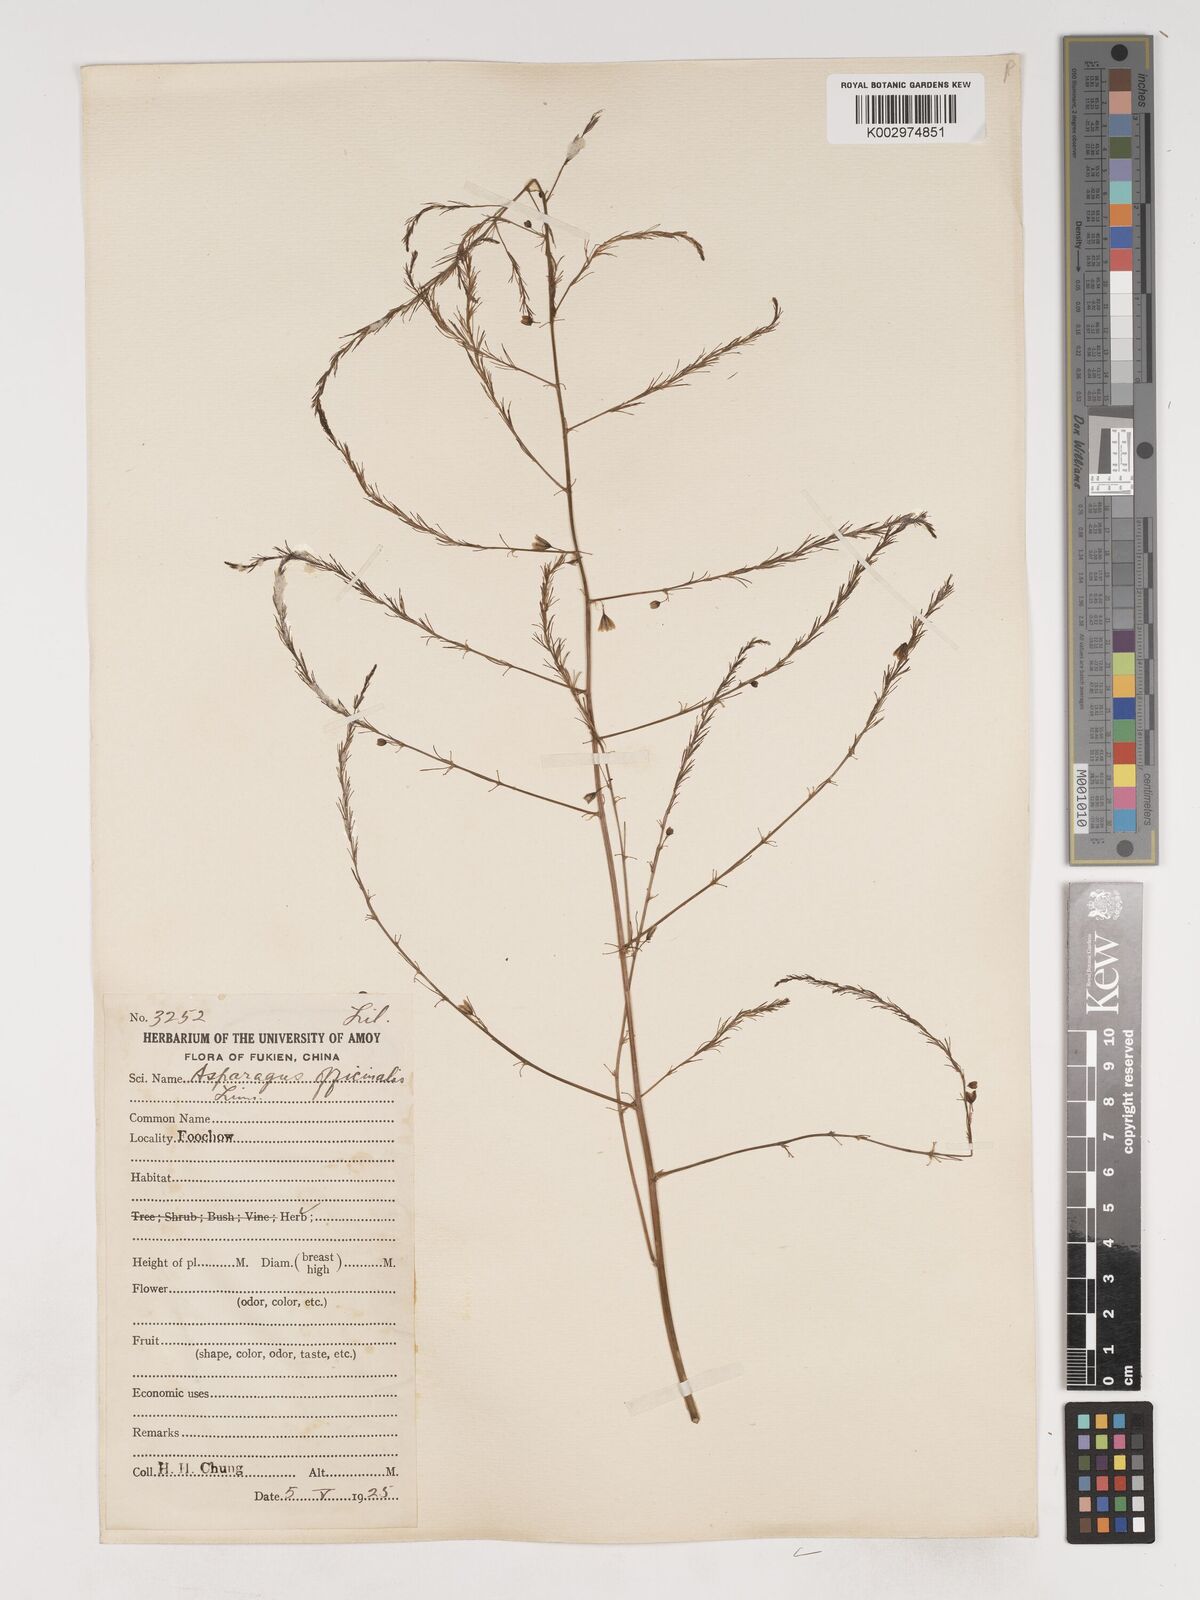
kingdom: Plantae
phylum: Tracheophyta
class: Liliopsida
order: Asparagales
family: Asparagaceae
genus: Asparagus
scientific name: Asparagus officinalis
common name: Garden asparagus
